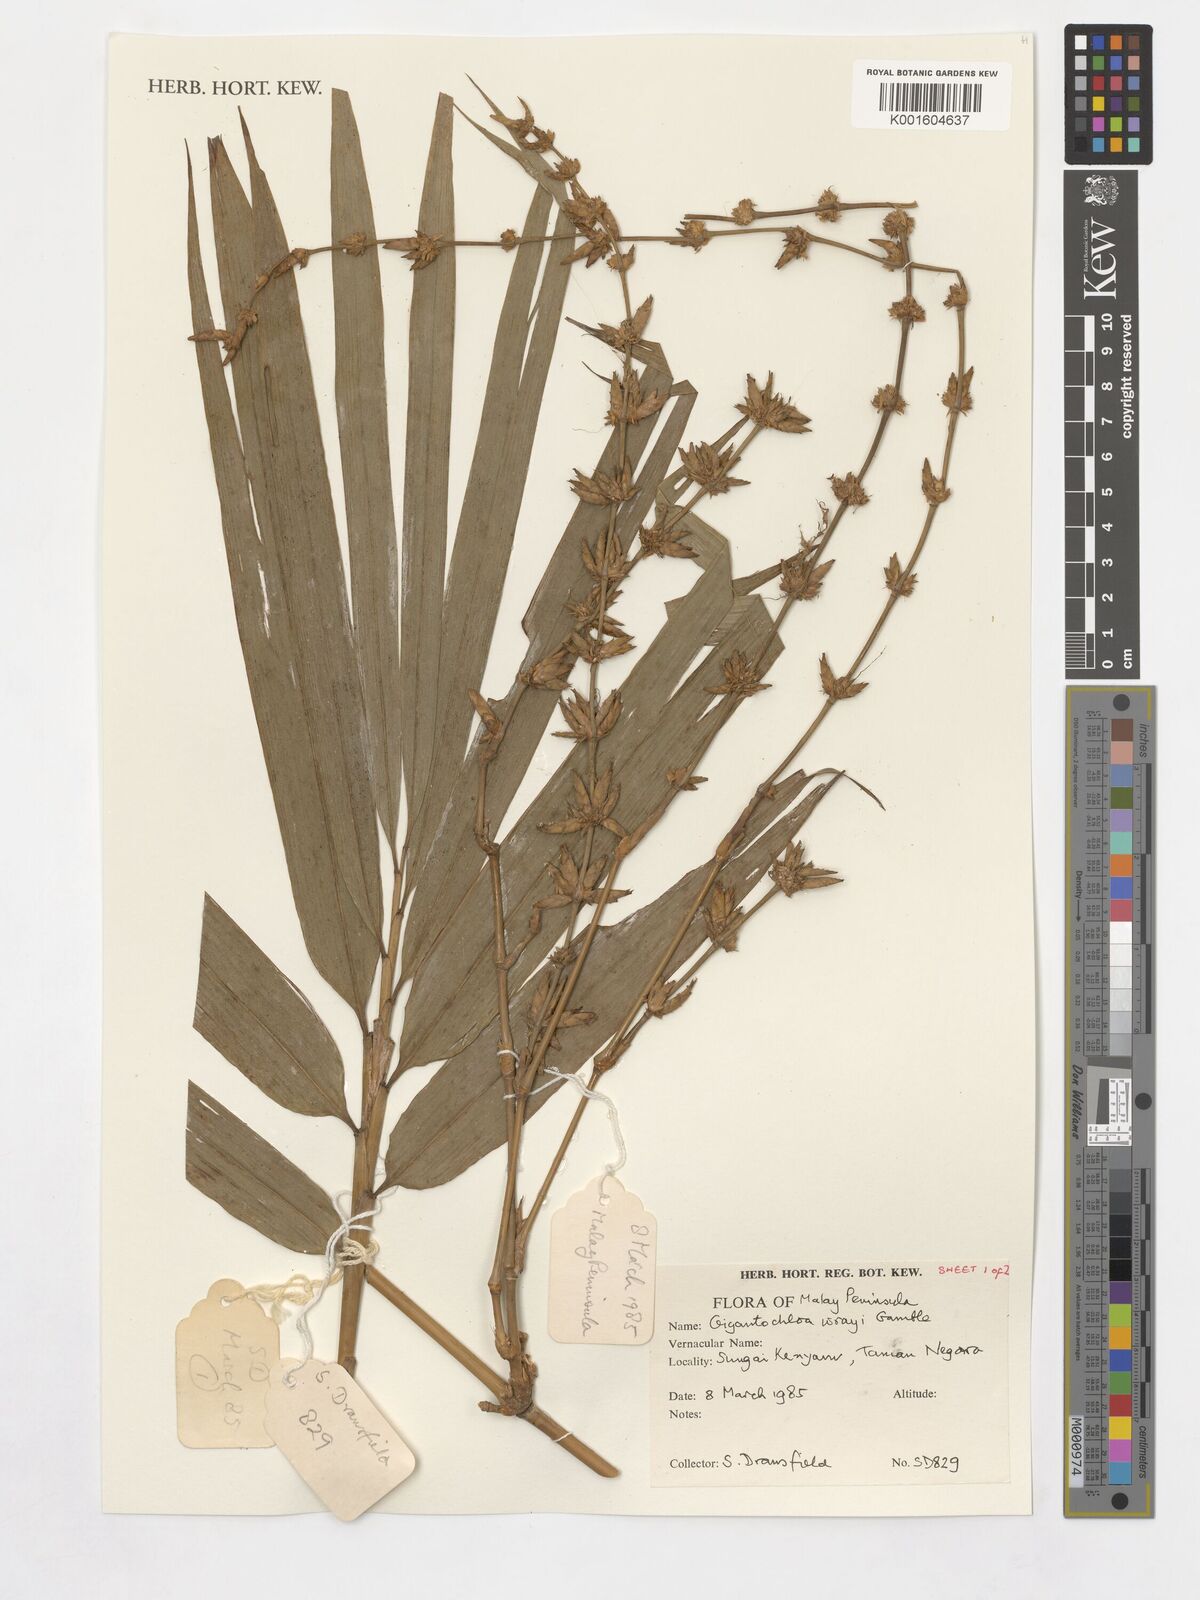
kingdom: Plantae
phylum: Tracheophyta
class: Liliopsida
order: Poales
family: Poaceae
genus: Gigantochloa
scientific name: Gigantochloa wrayi
